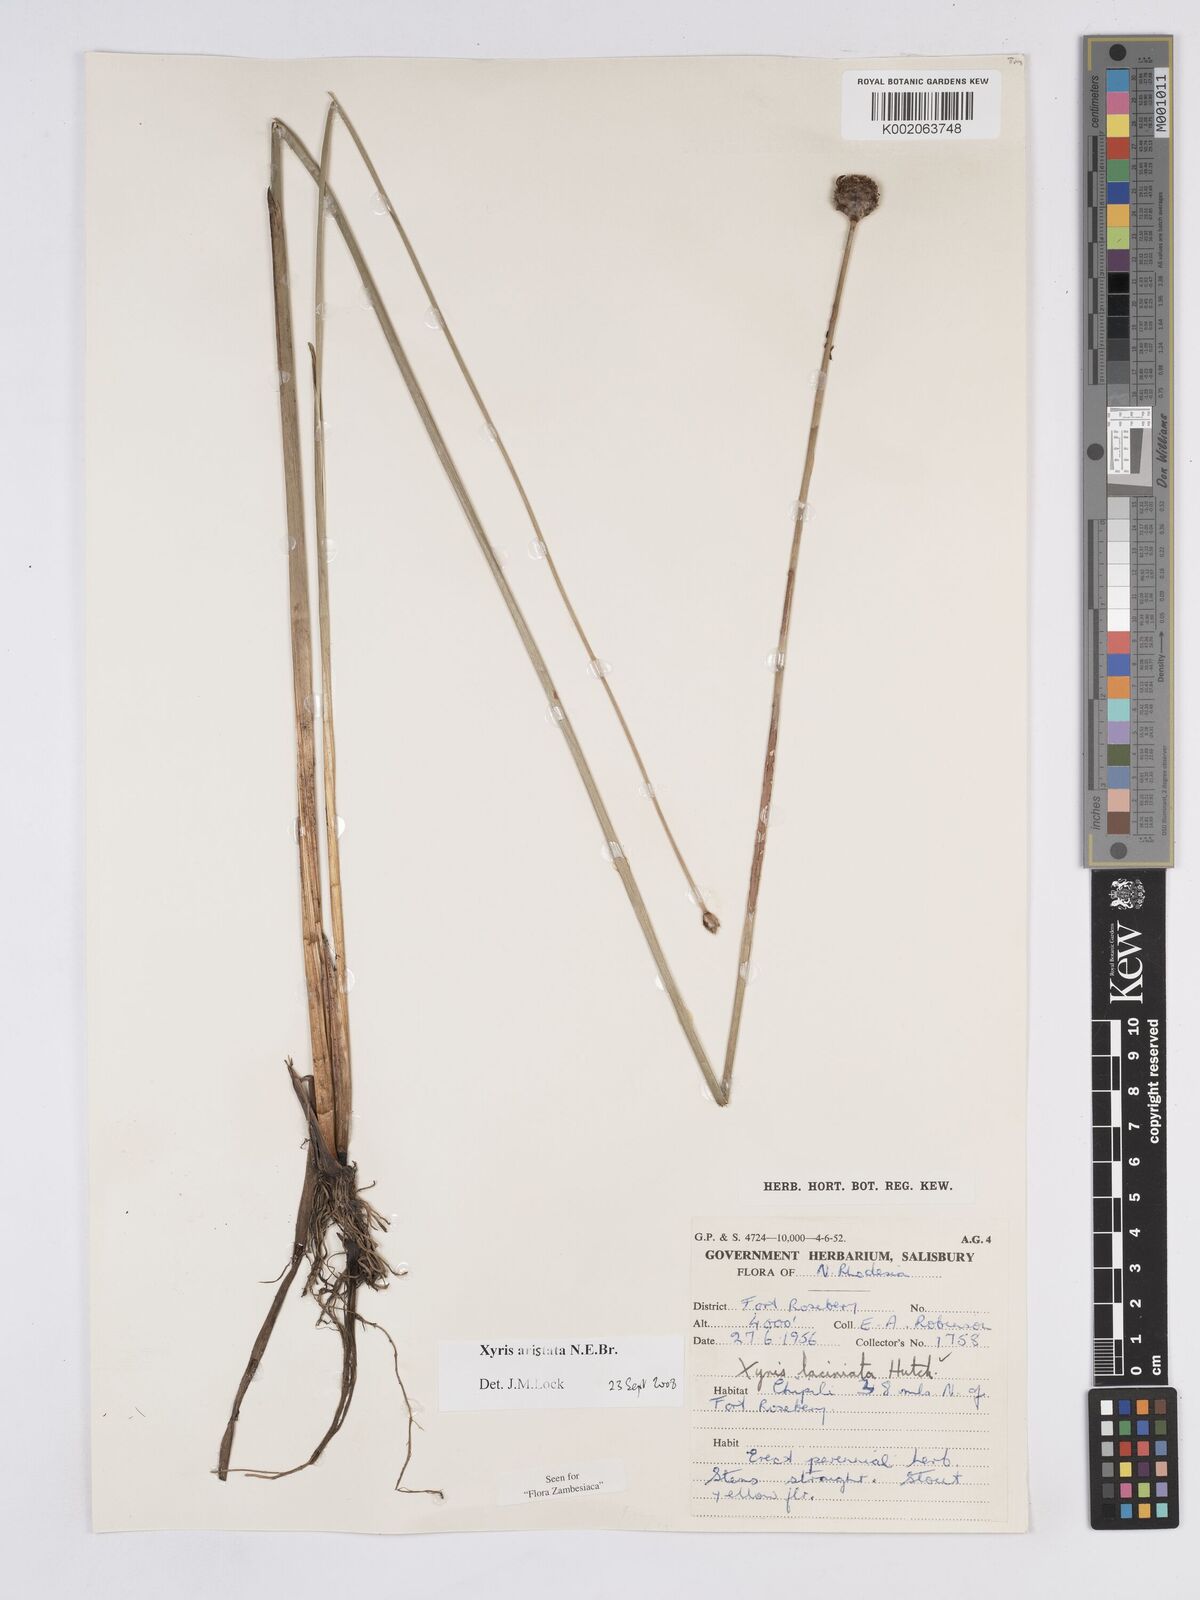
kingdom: Plantae
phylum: Tracheophyta
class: Liliopsida
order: Poales
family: Xyridaceae
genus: Xyris
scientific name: Xyris aristata
